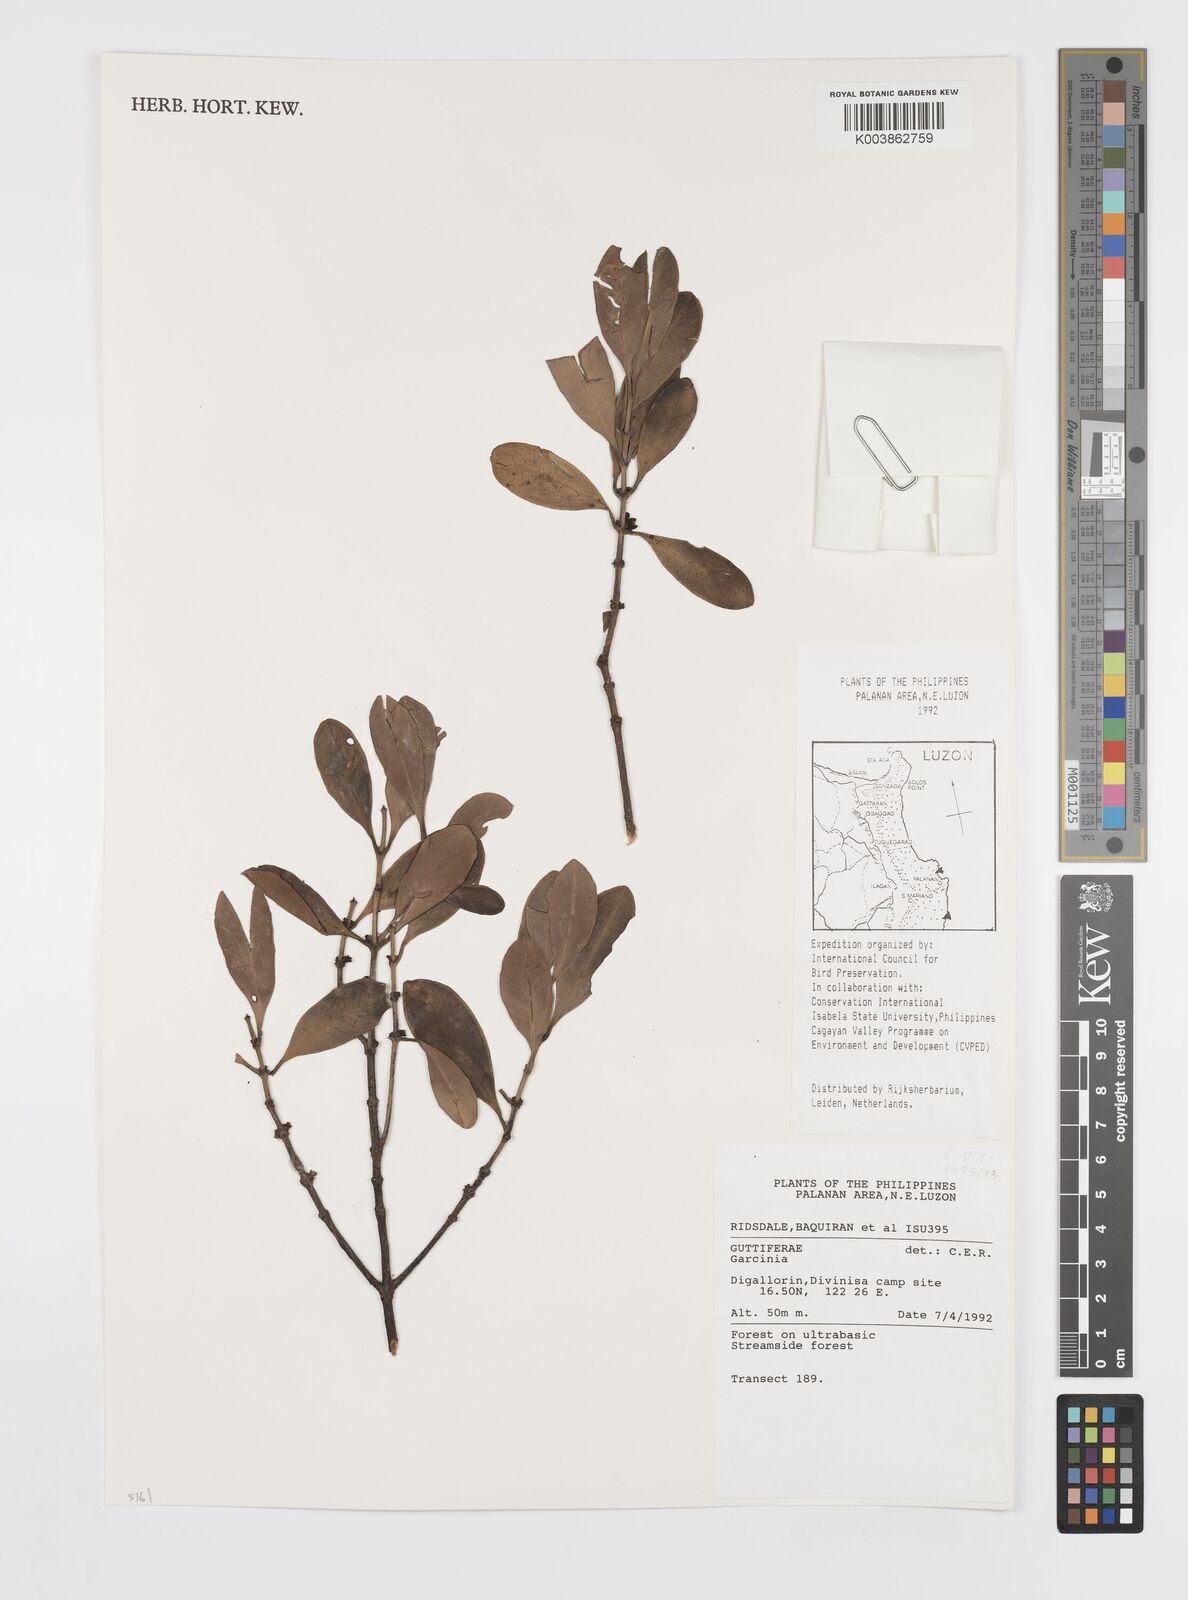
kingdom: Plantae
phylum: Tracheophyta
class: Magnoliopsida
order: Malpighiales
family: Clusiaceae
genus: Garcinia
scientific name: Garcinia
